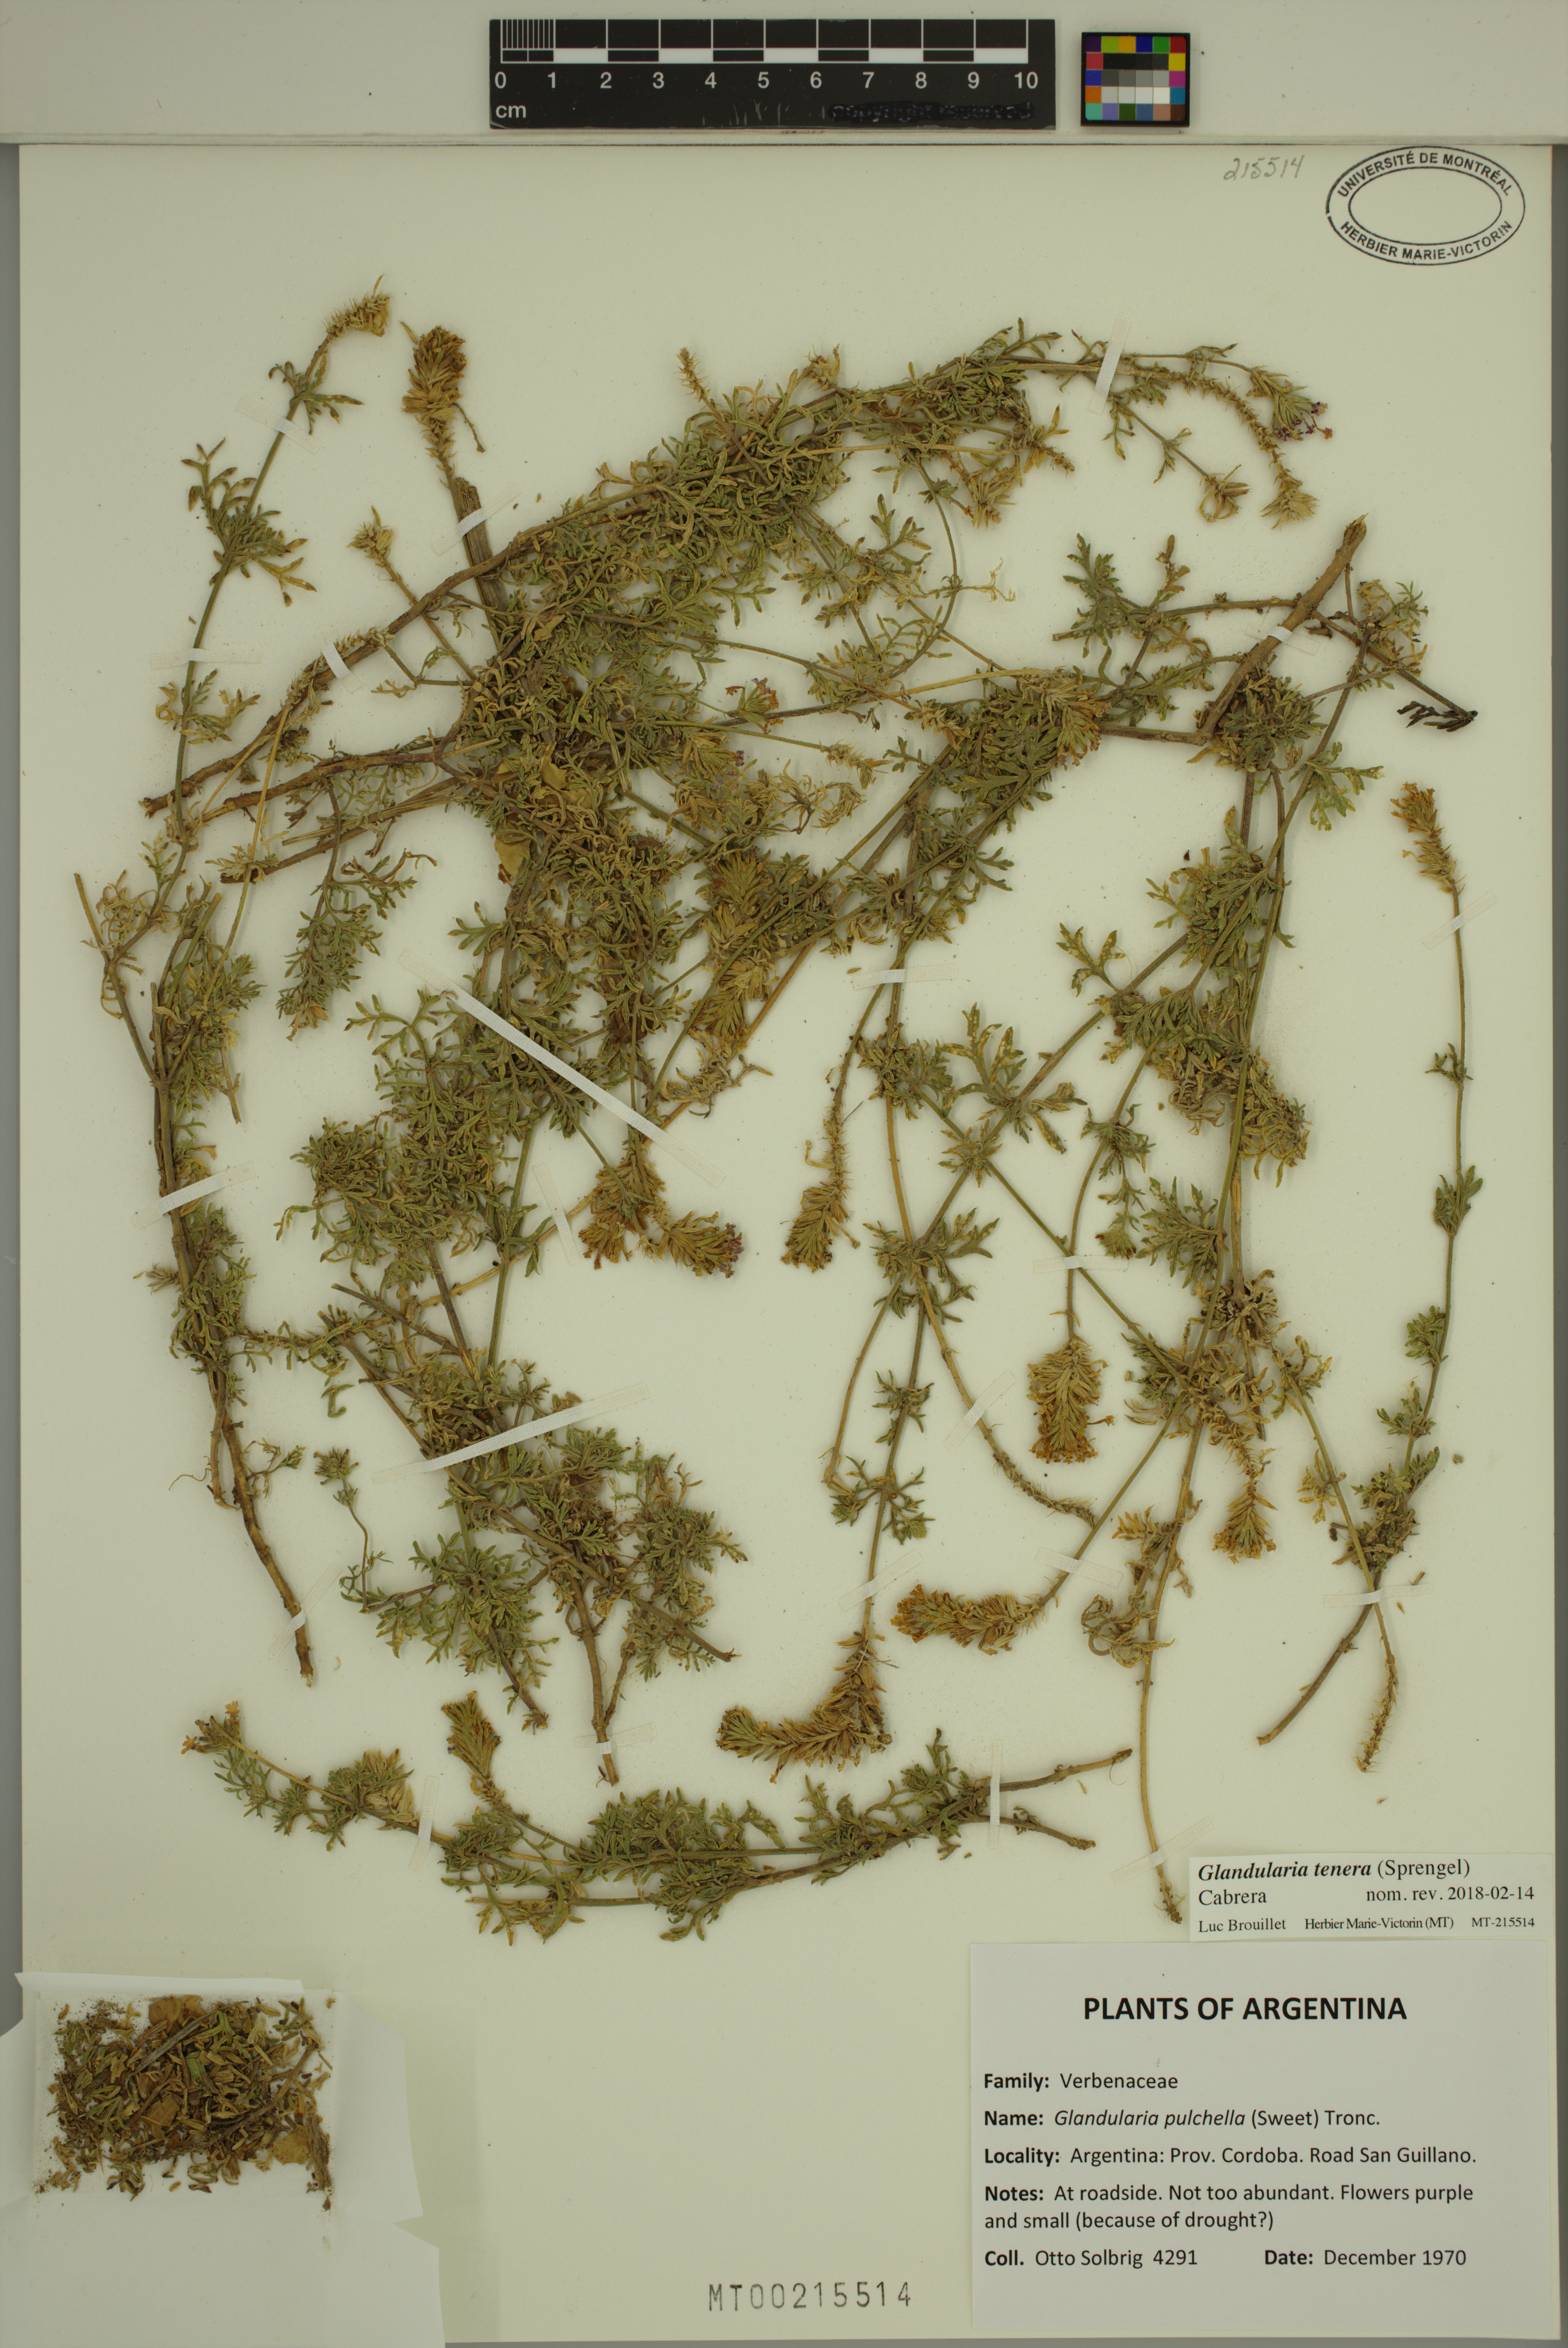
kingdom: Plantae
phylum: Tracheophyta
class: Magnoliopsida
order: Lamiales
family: Verbenaceae
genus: Verbena
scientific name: Verbena tenera
